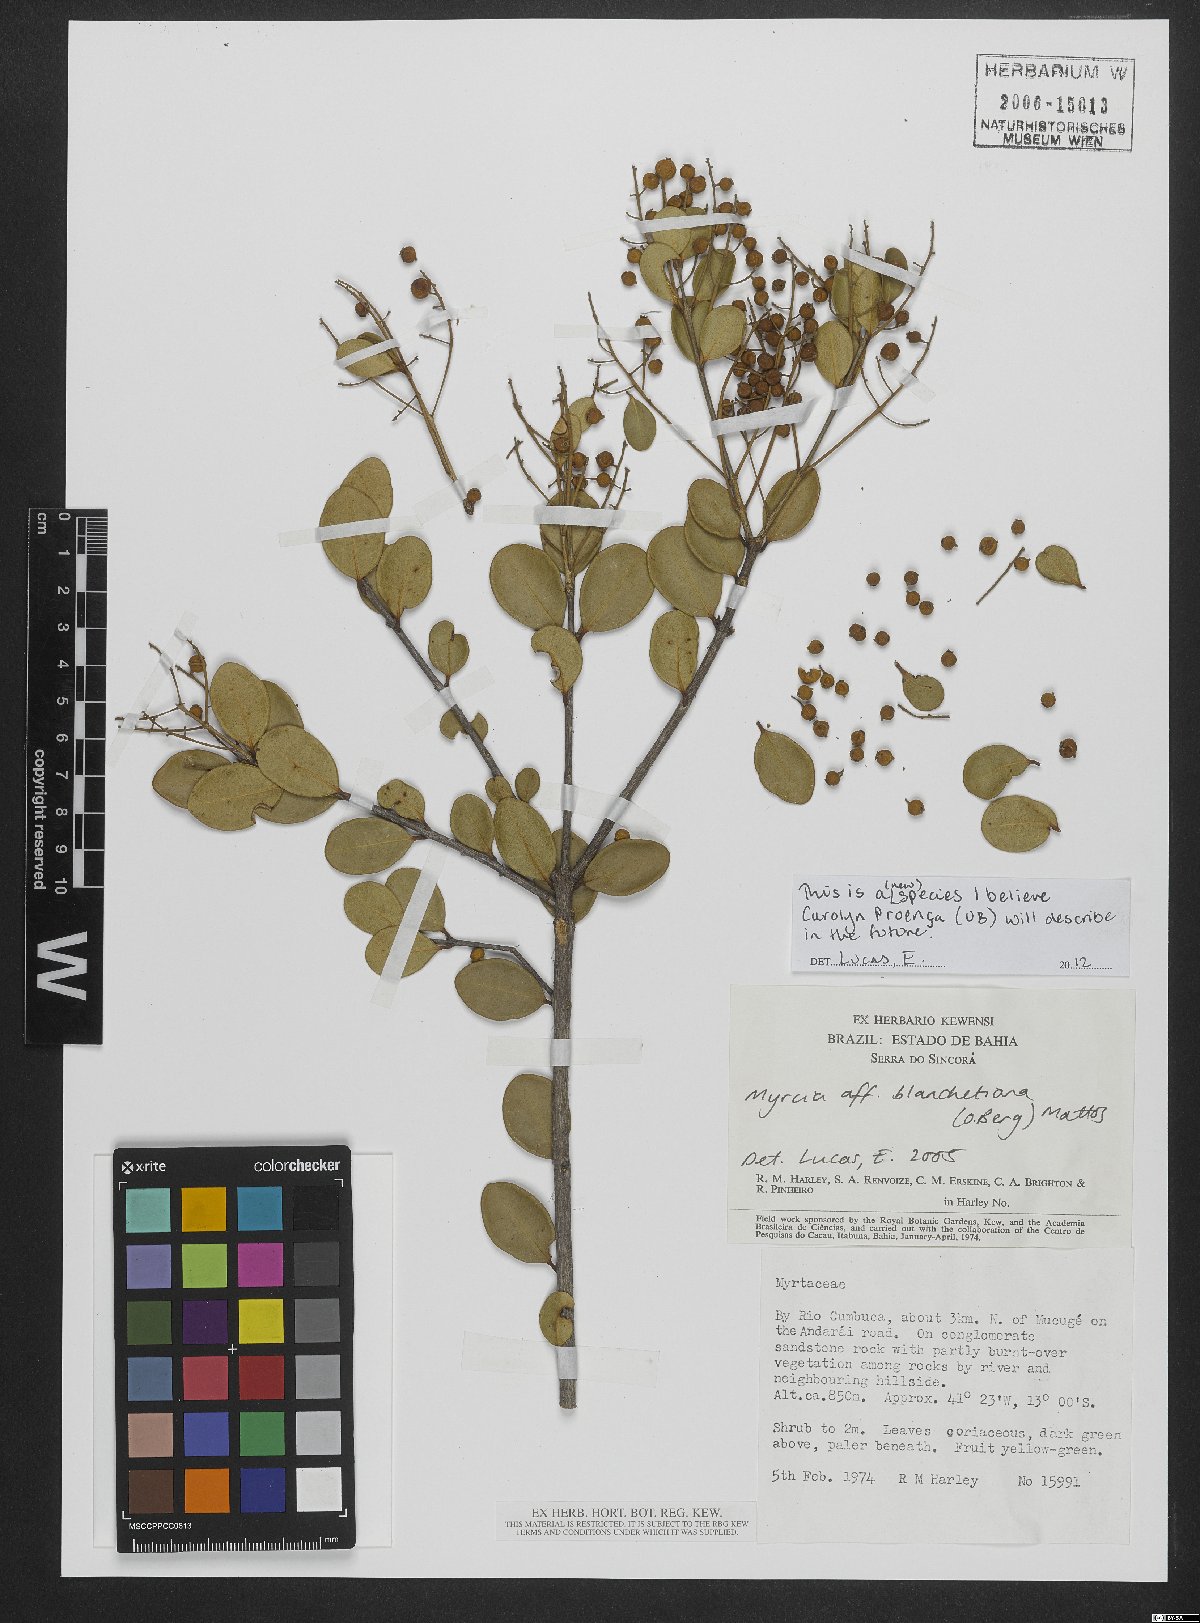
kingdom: Plantae
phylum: Tracheophyta
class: Magnoliopsida
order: Myrtales
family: Myrtaceae
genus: Myrcia
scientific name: Myrcia blanchetiana
